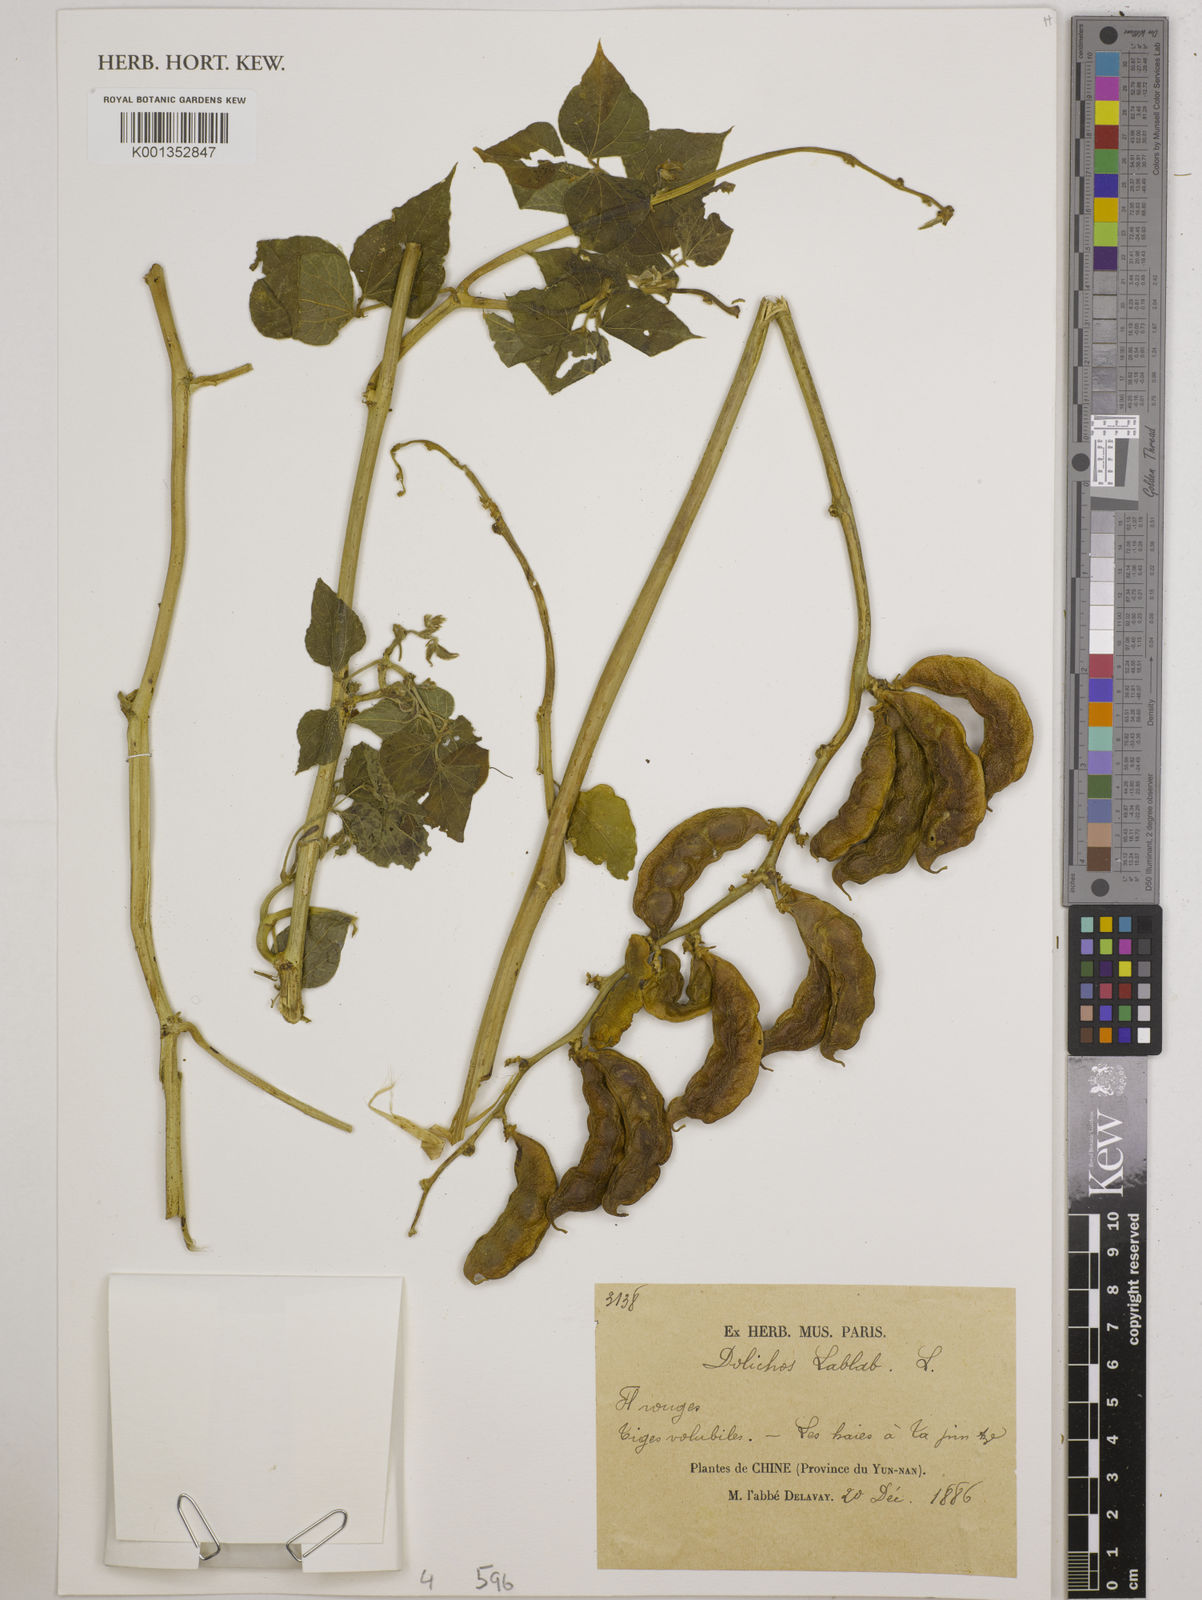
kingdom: Plantae
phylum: Tracheophyta
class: Magnoliopsida
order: Fabales
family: Fabaceae
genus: Lablab
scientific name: Lablab purpureus
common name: Lablab-bean
